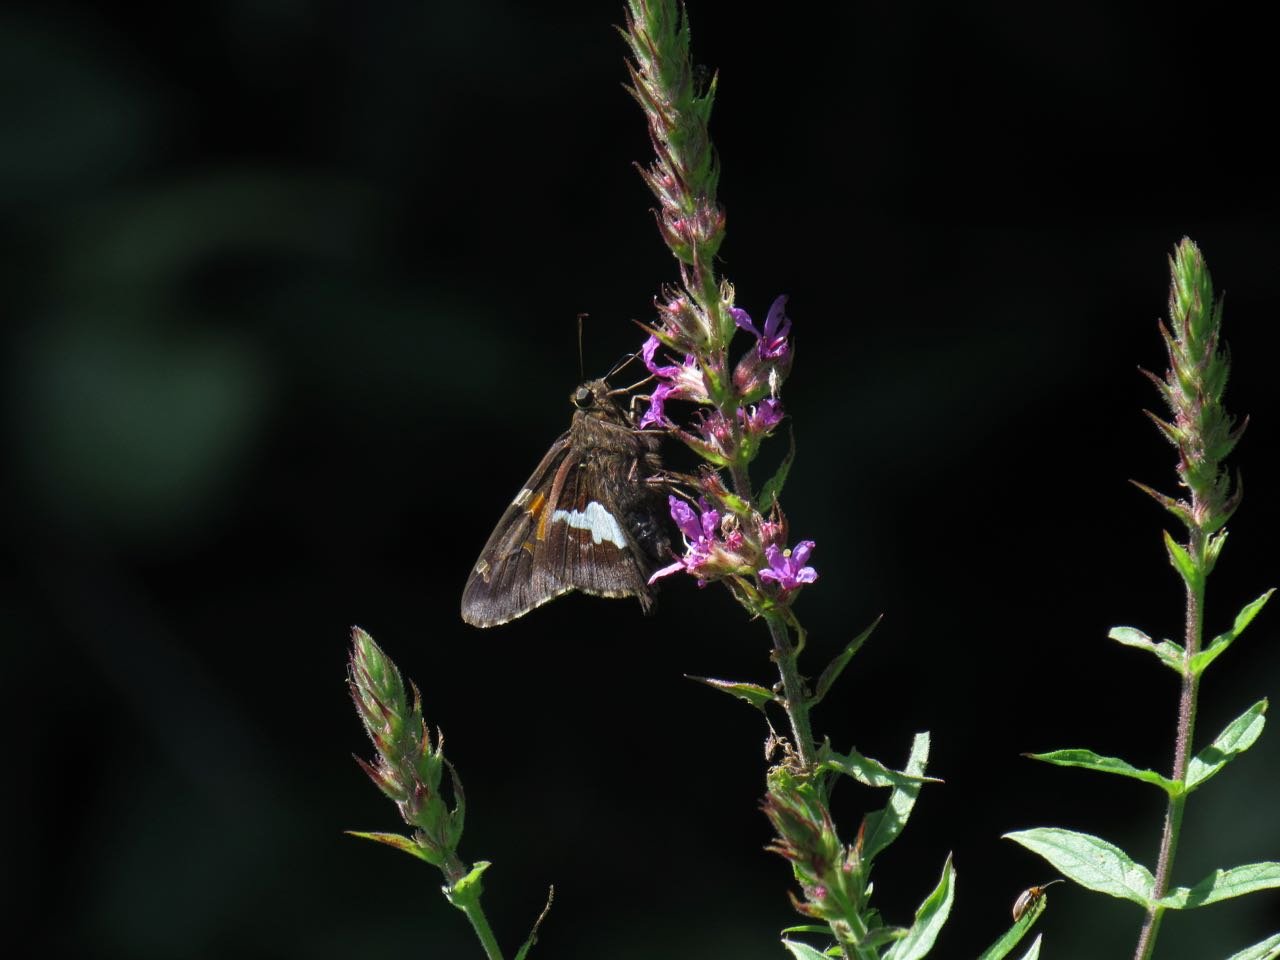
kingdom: Animalia
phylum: Arthropoda
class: Insecta
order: Lepidoptera
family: Hesperiidae
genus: Epargyreus
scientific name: Epargyreus clarus
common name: Silver-spotted Skipper
